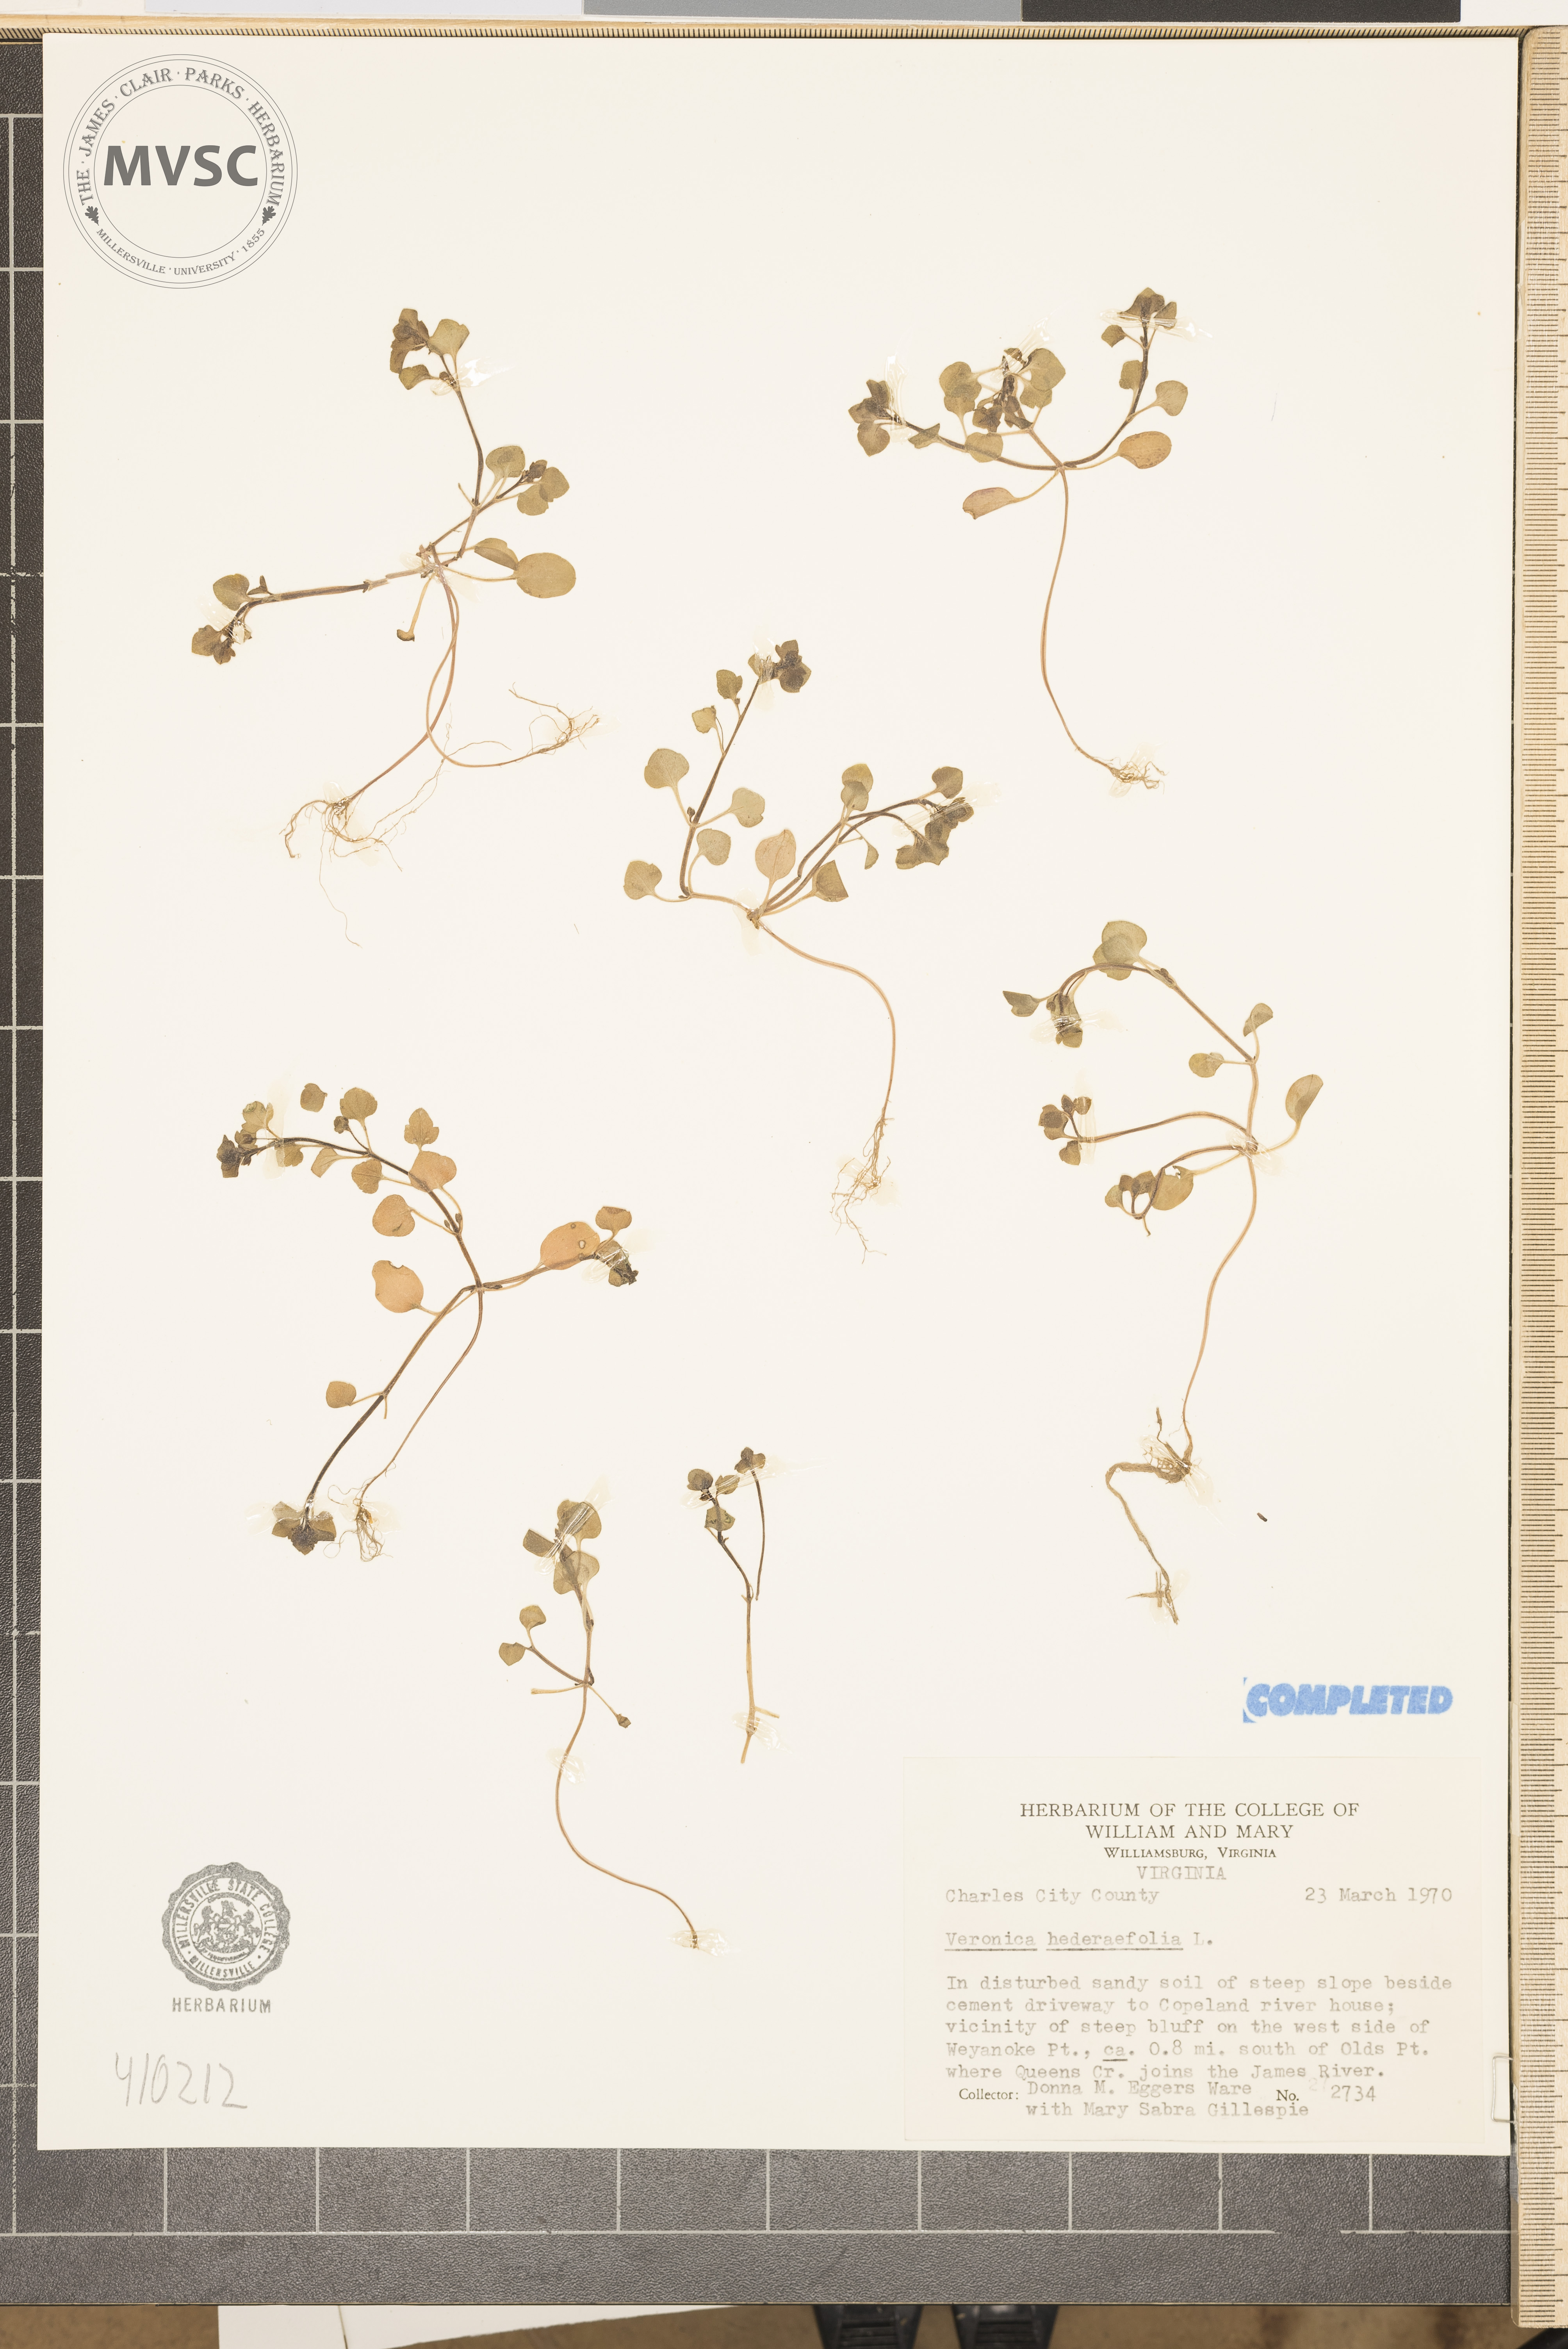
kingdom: Plantae
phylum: Tracheophyta
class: Magnoliopsida
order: Lamiales
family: Plantaginaceae
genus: Veronica
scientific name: Veronica hederifolia
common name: Ivy-leaved speedwell
